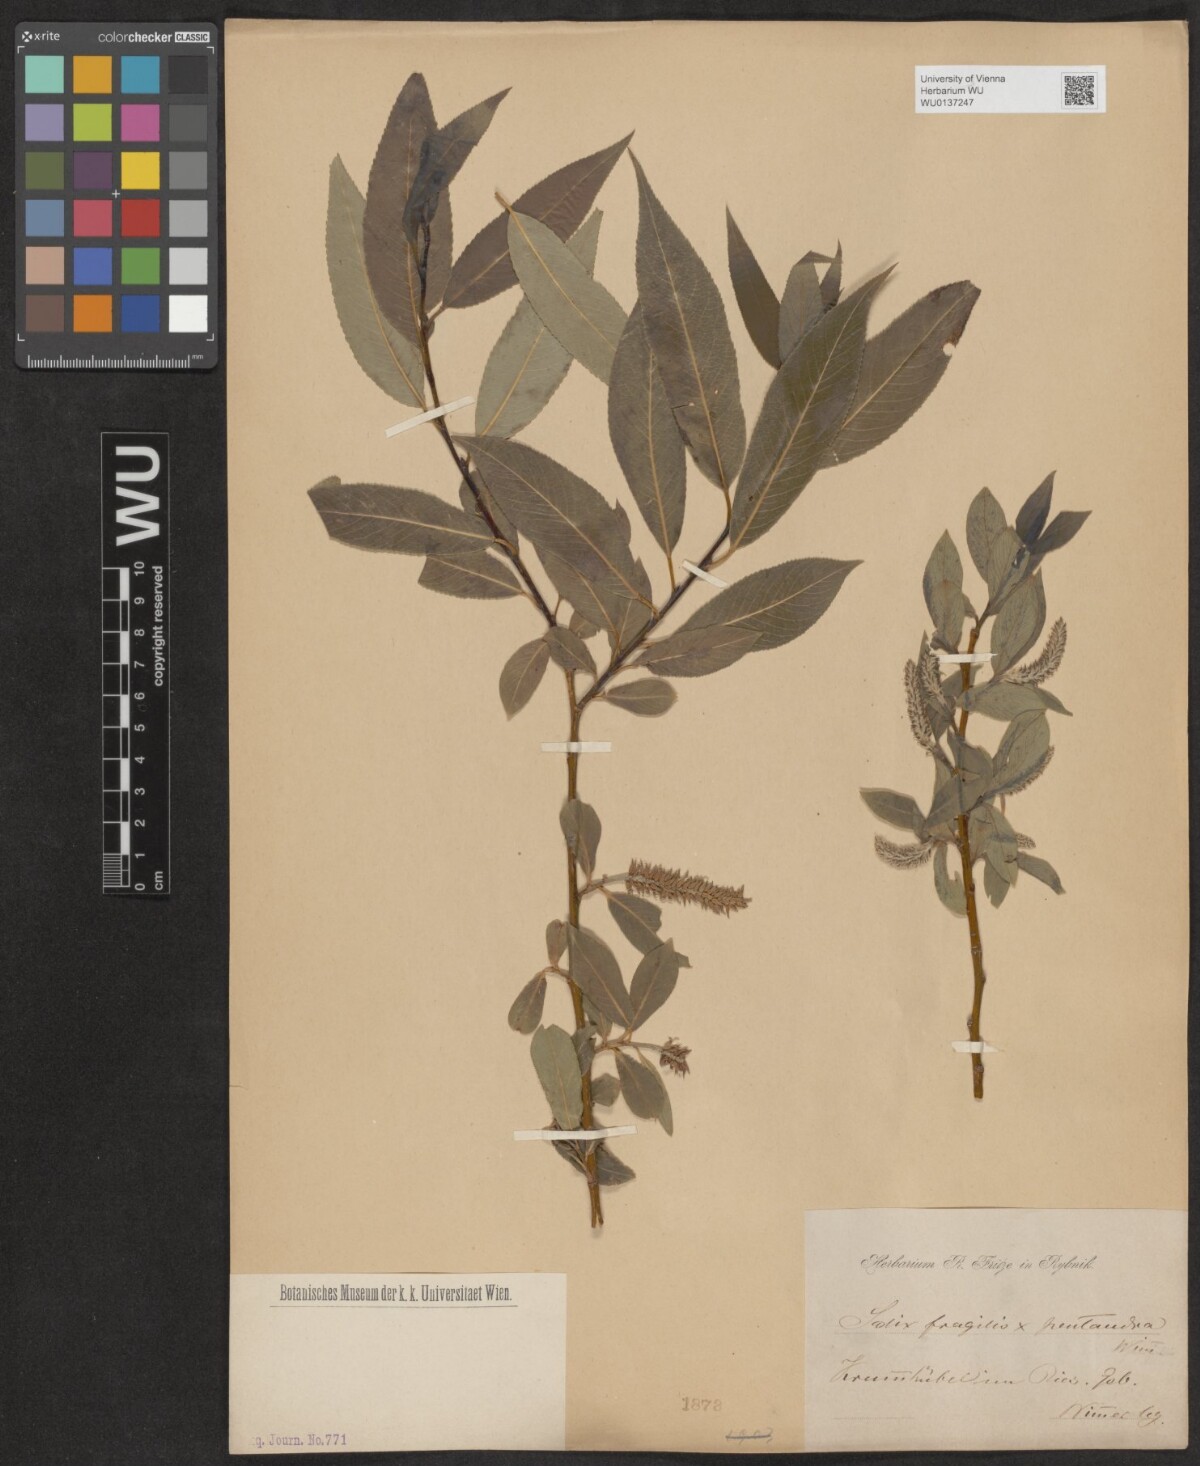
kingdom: Plantae
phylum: Tracheophyta
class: Magnoliopsida
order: Malpighiales
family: Salicaceae
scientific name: Salicaceae
